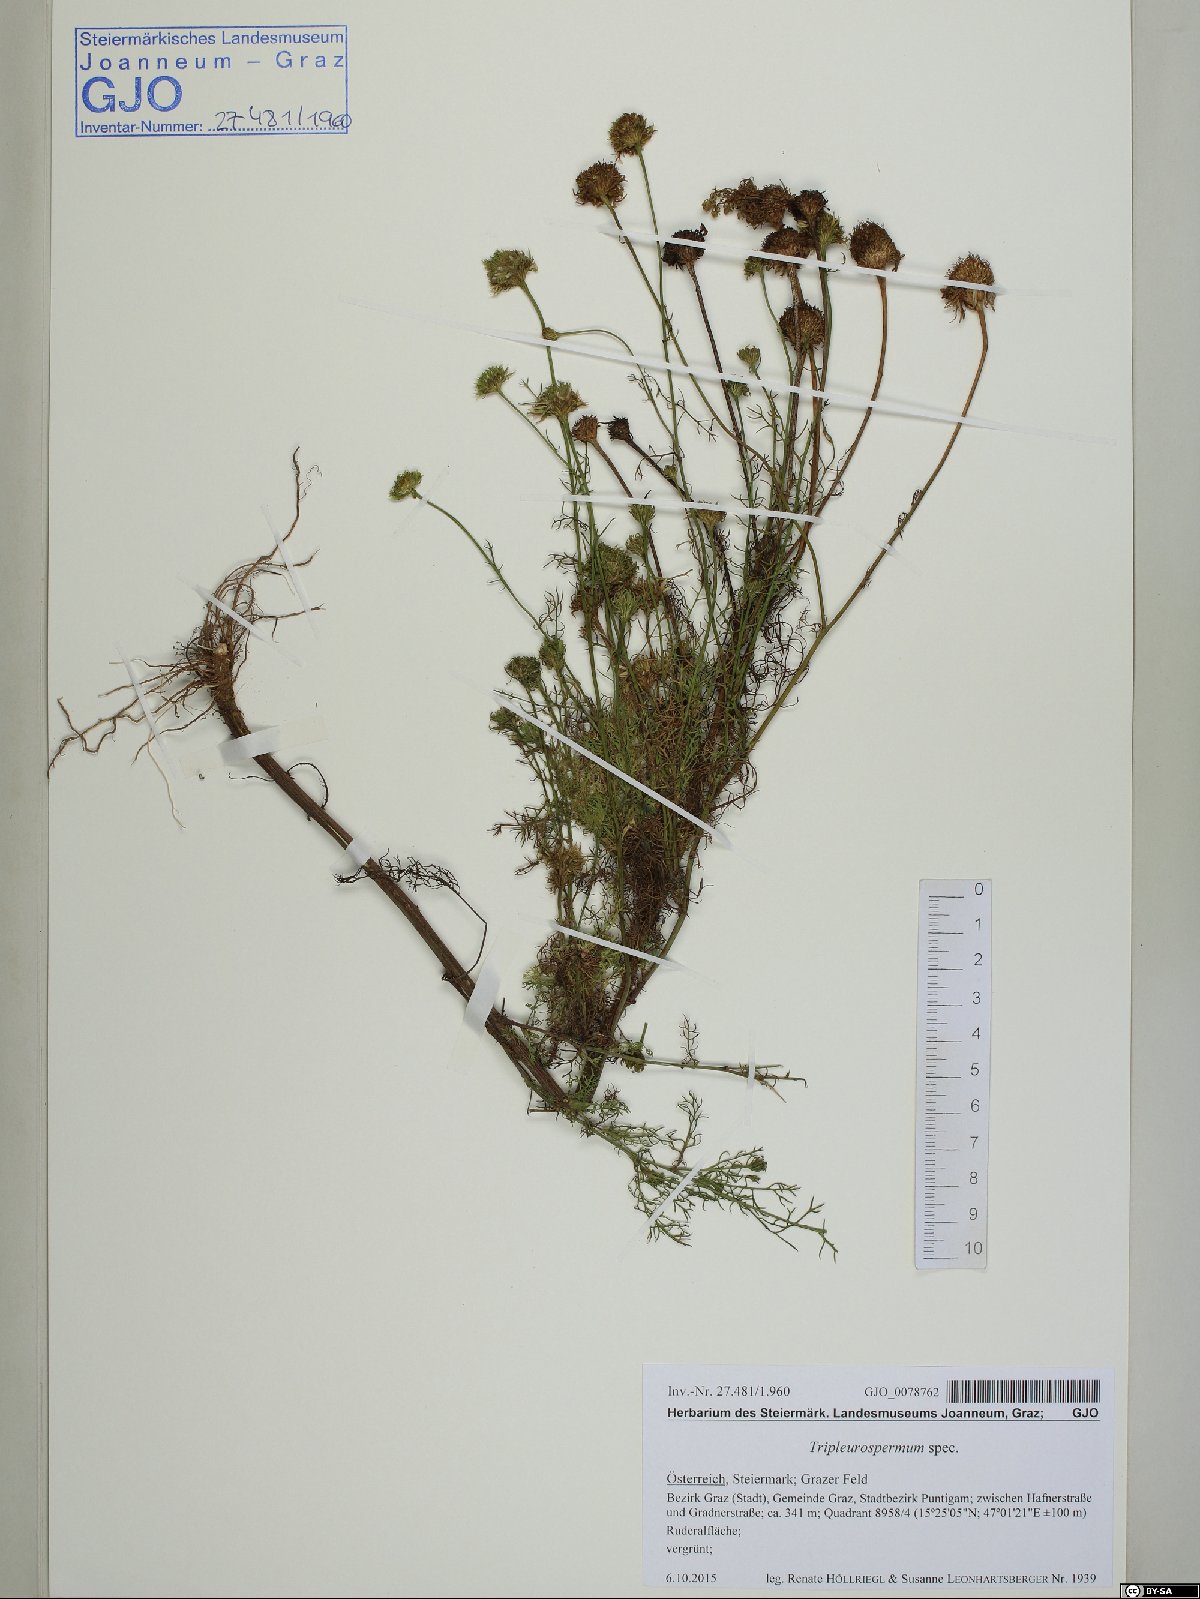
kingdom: Plantae
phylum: Tracheophyta
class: Magnoliopsida
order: Asterales
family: Asteraceae
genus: Tripleurospermum
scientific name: Tripleurospermum
